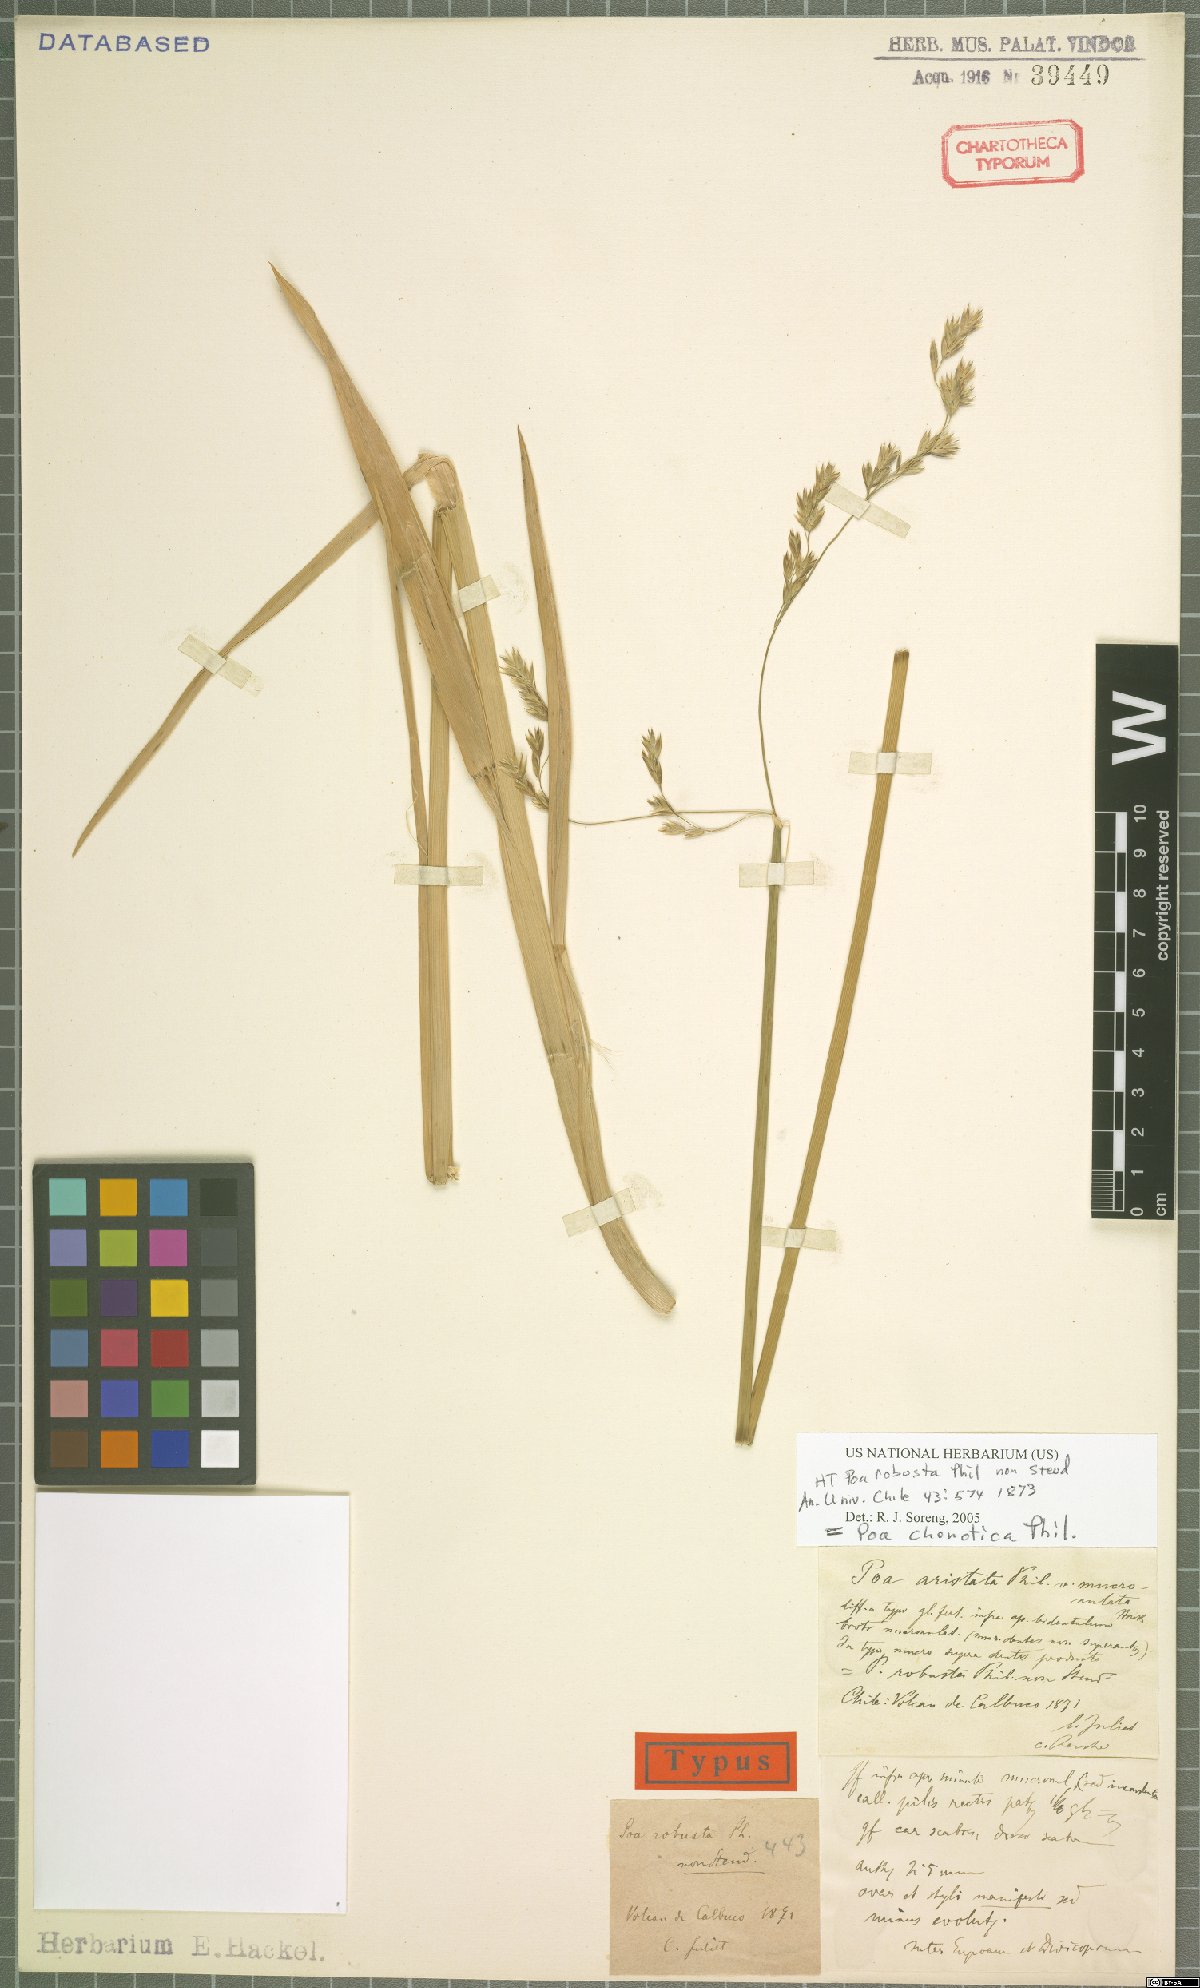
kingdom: Plantae
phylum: Tracheophyta
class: Liliopsida
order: Poales
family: Poaceae
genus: Nicoraepoa
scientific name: Nicoraepoa chonotica
